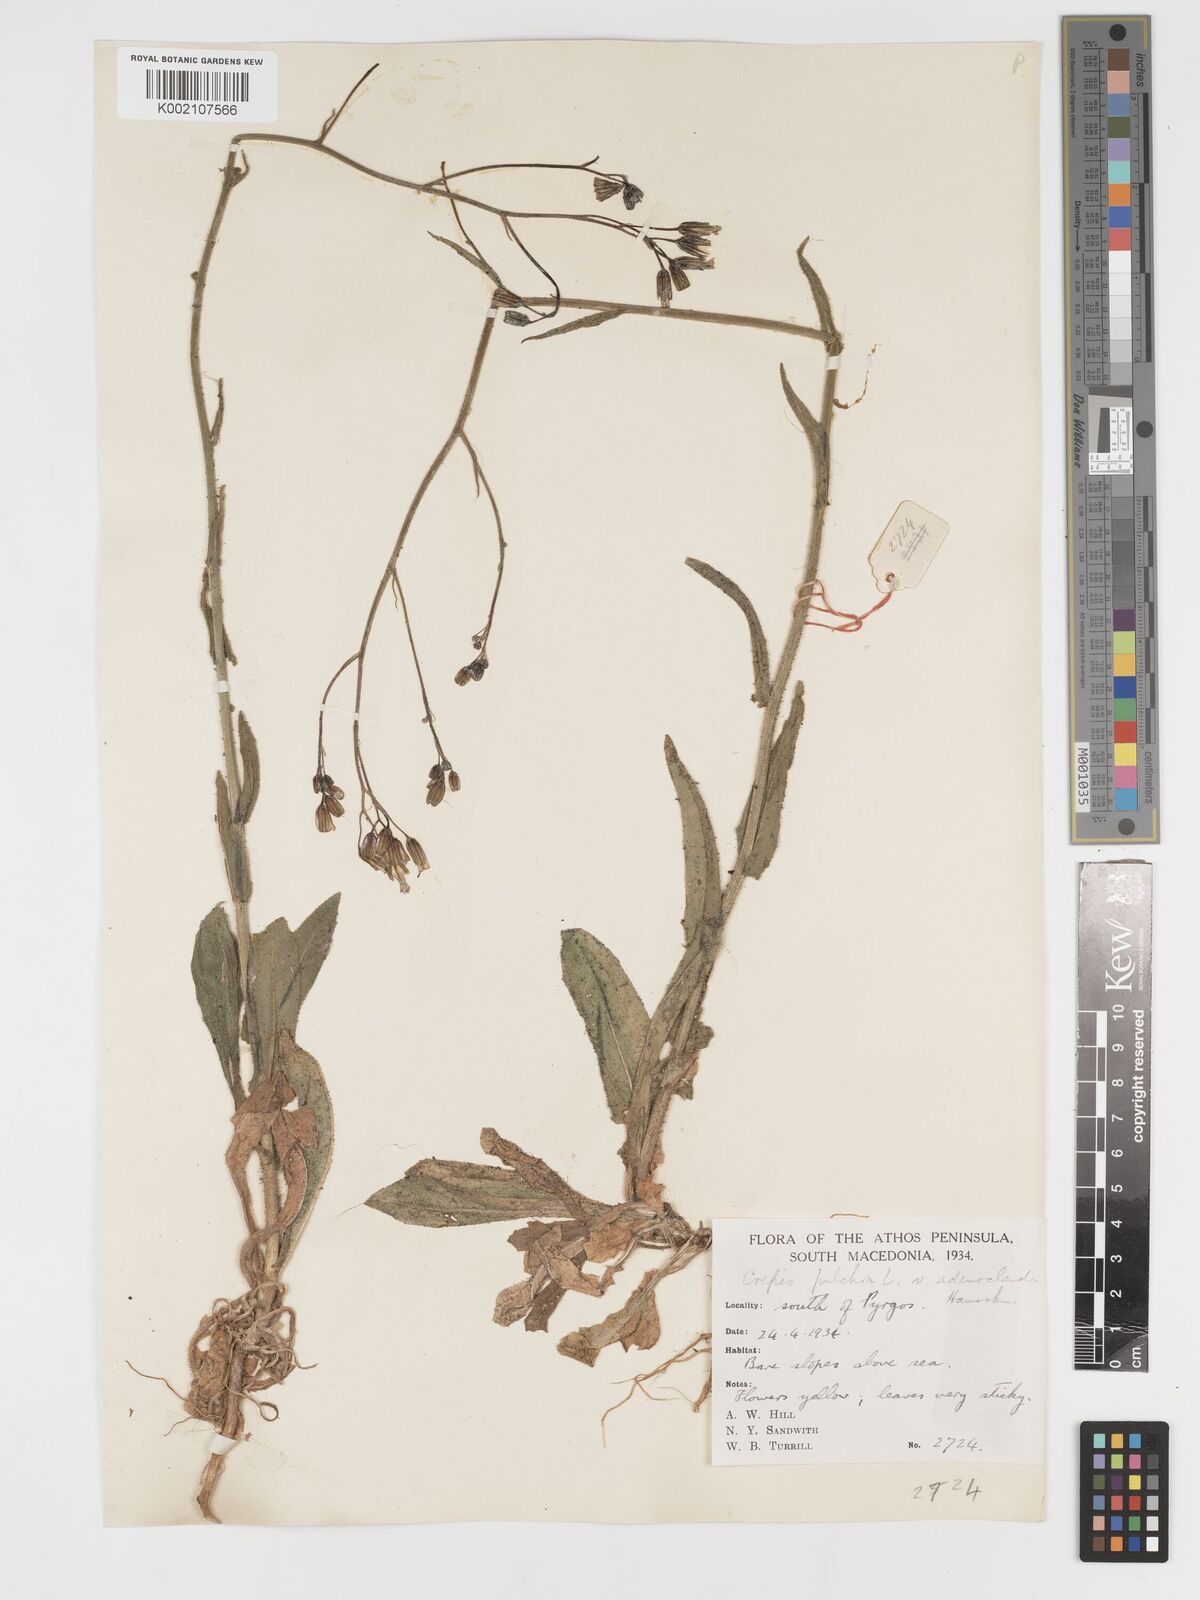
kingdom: Plantae
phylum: Tracheophyta
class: Magnoliopsida
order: Asterales
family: Asteraceae
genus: Crepis
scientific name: Crepis pulchra
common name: Hawk's-beard
